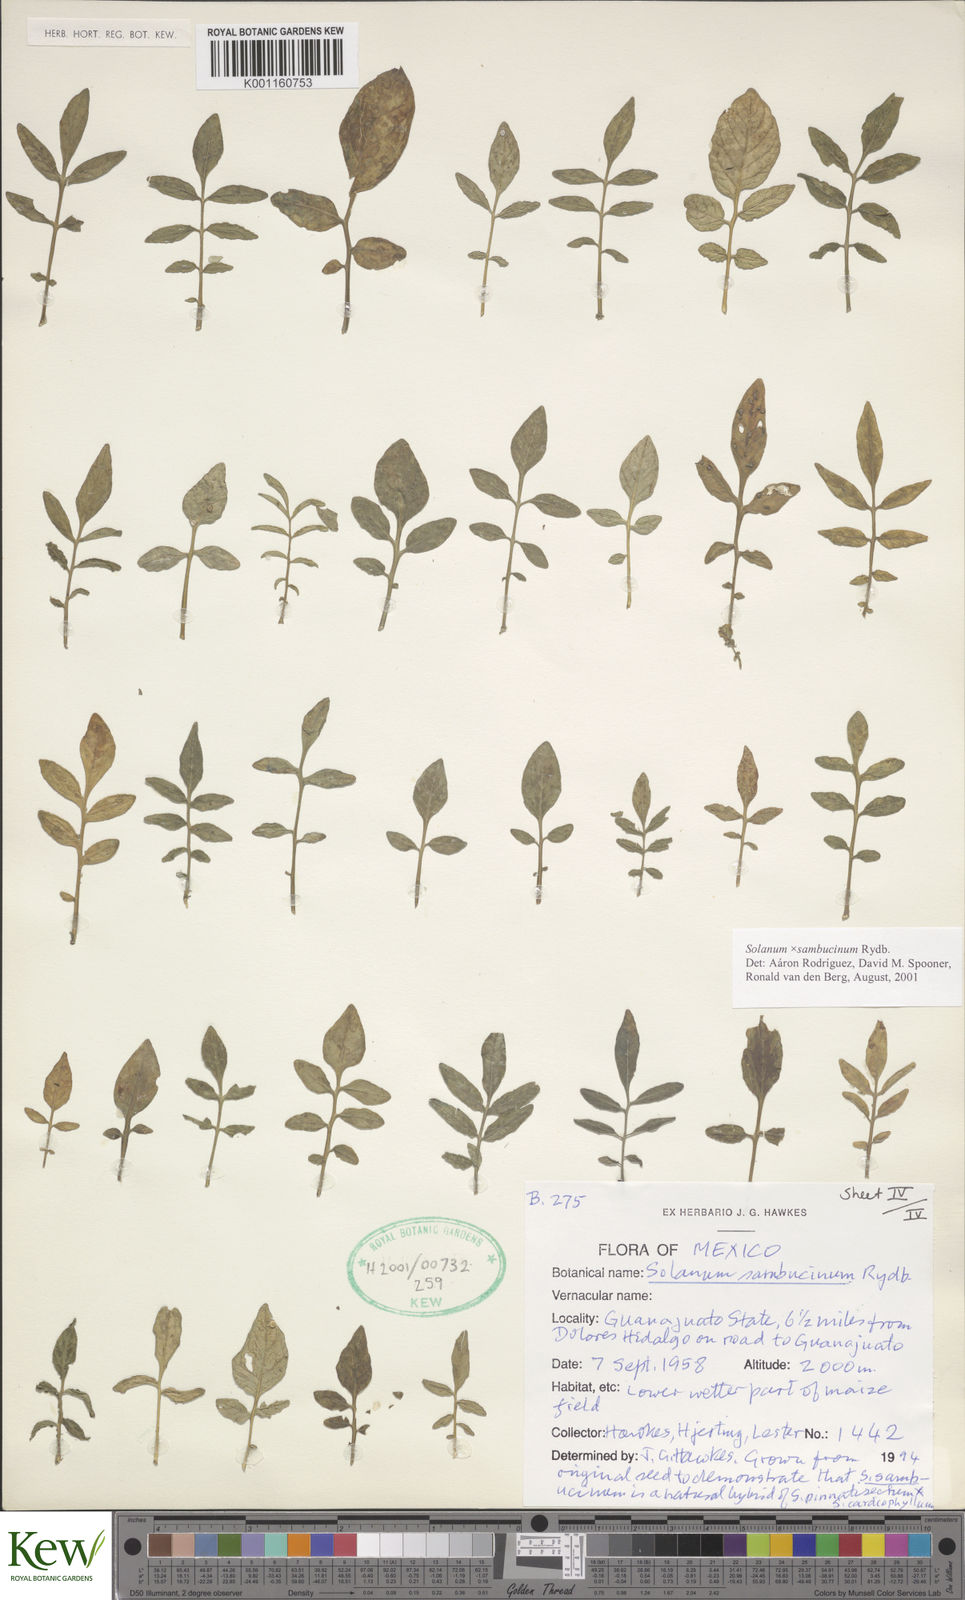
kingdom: Plantae
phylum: Tracheophyta
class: Magnoliopsida
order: Solanales
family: Solanaceae
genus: Solanum
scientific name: Solanum sambucinum
